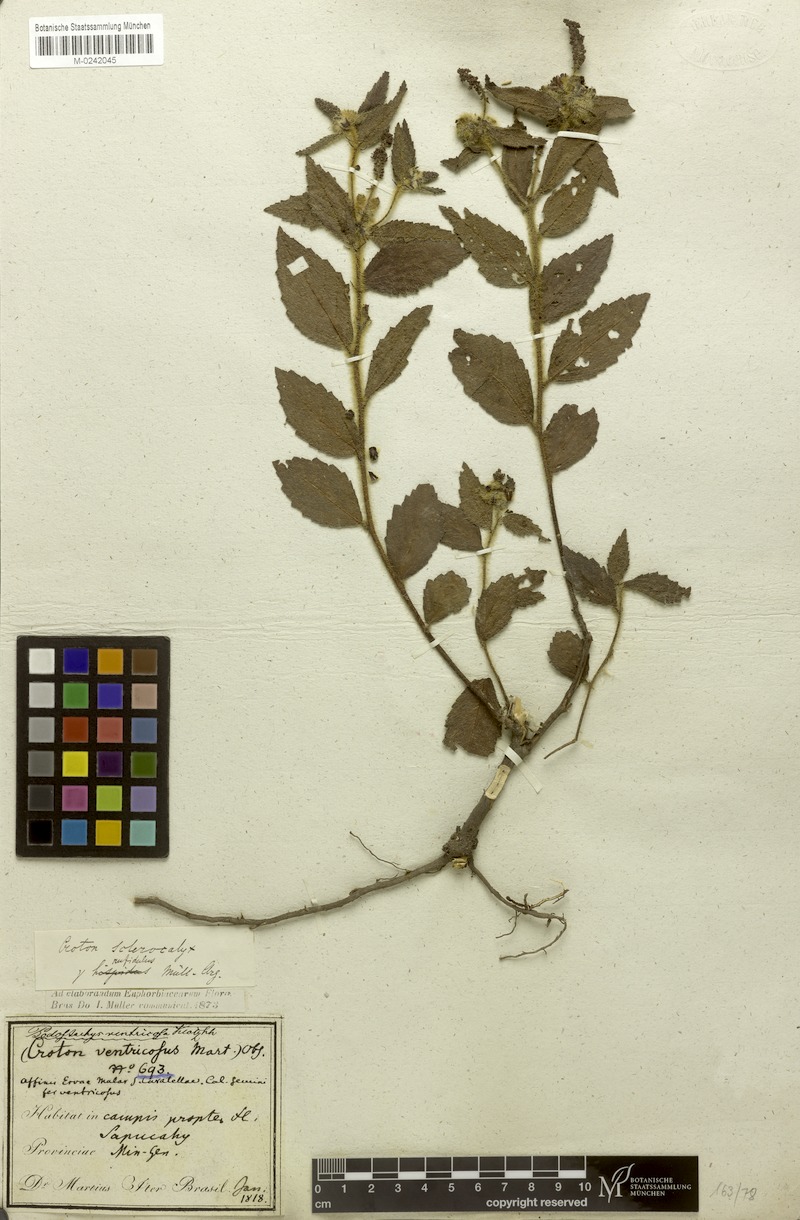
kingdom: Plantae
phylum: Tracheophyta
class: Magnoliopsida
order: Malpighiales
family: Euphorbiaceae
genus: Croton
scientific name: Croton sclerocalyx
